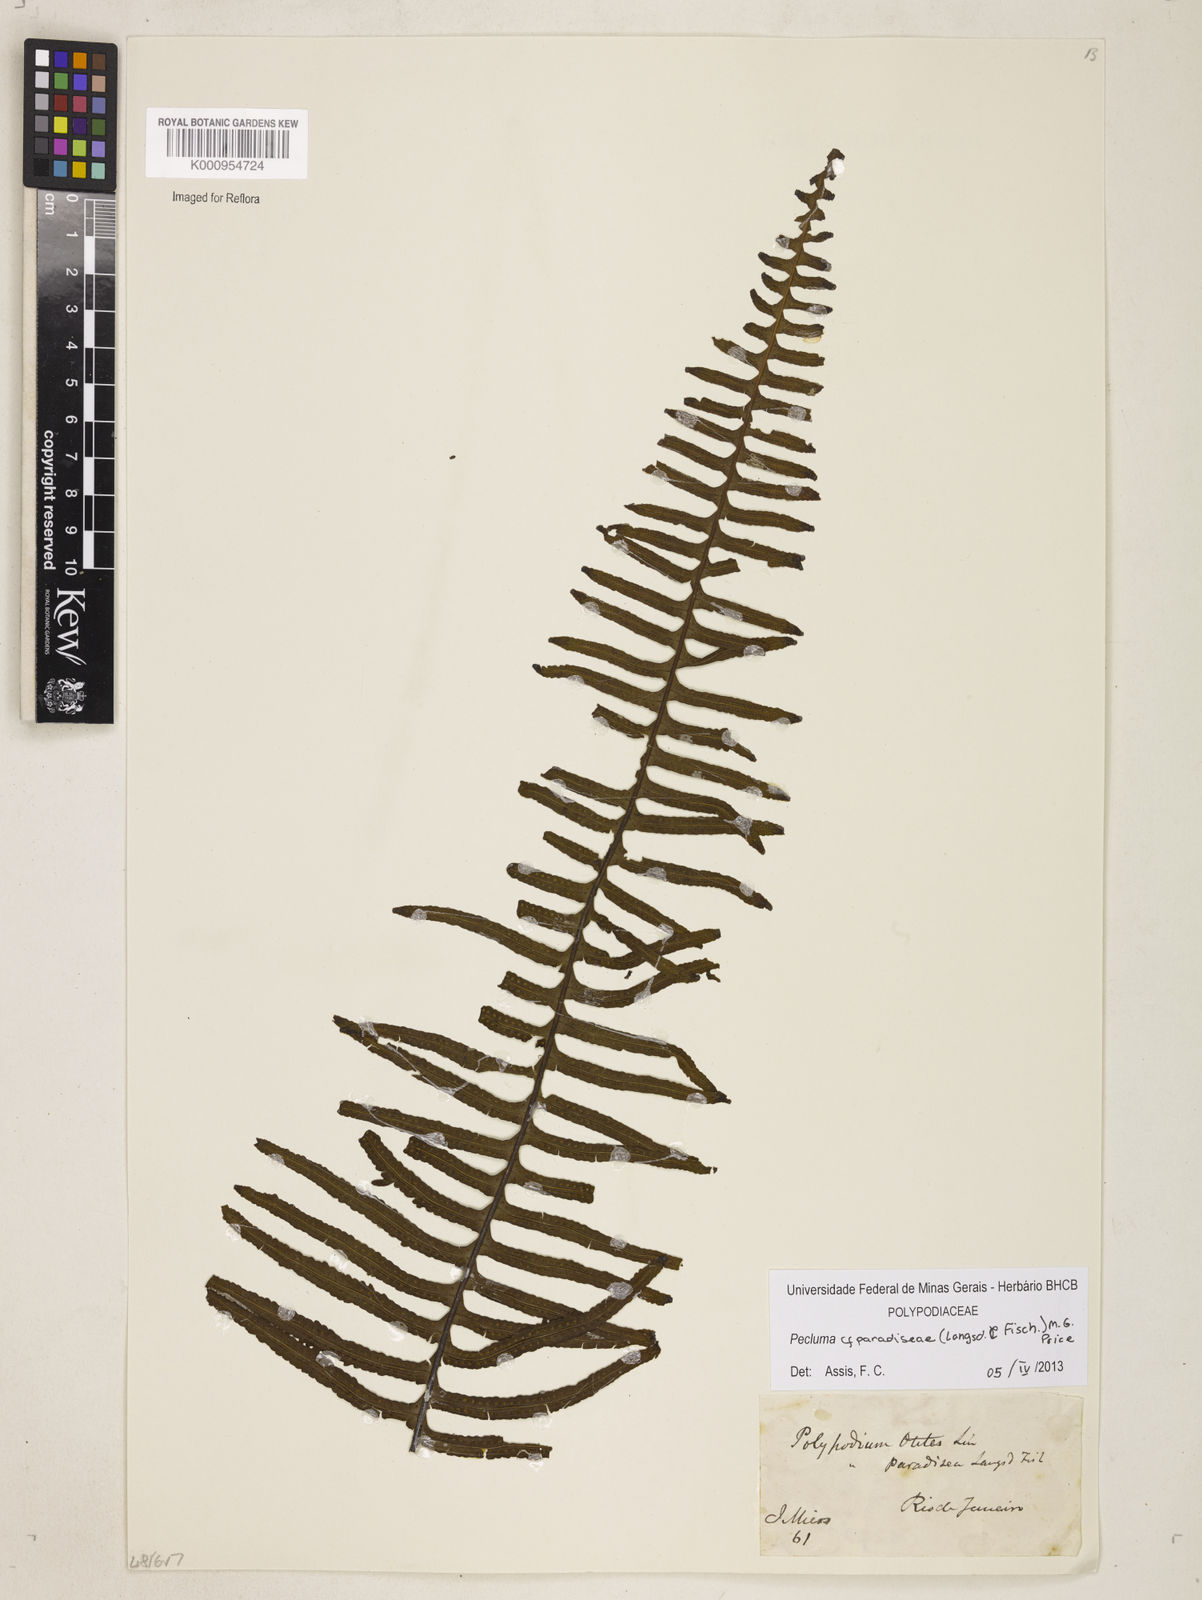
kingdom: Plantae
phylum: Tracheophyta
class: Polypodiopsida
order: Polypodiales
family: Polypodiaceae
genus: Pecluma
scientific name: Pecluma paradiseae
